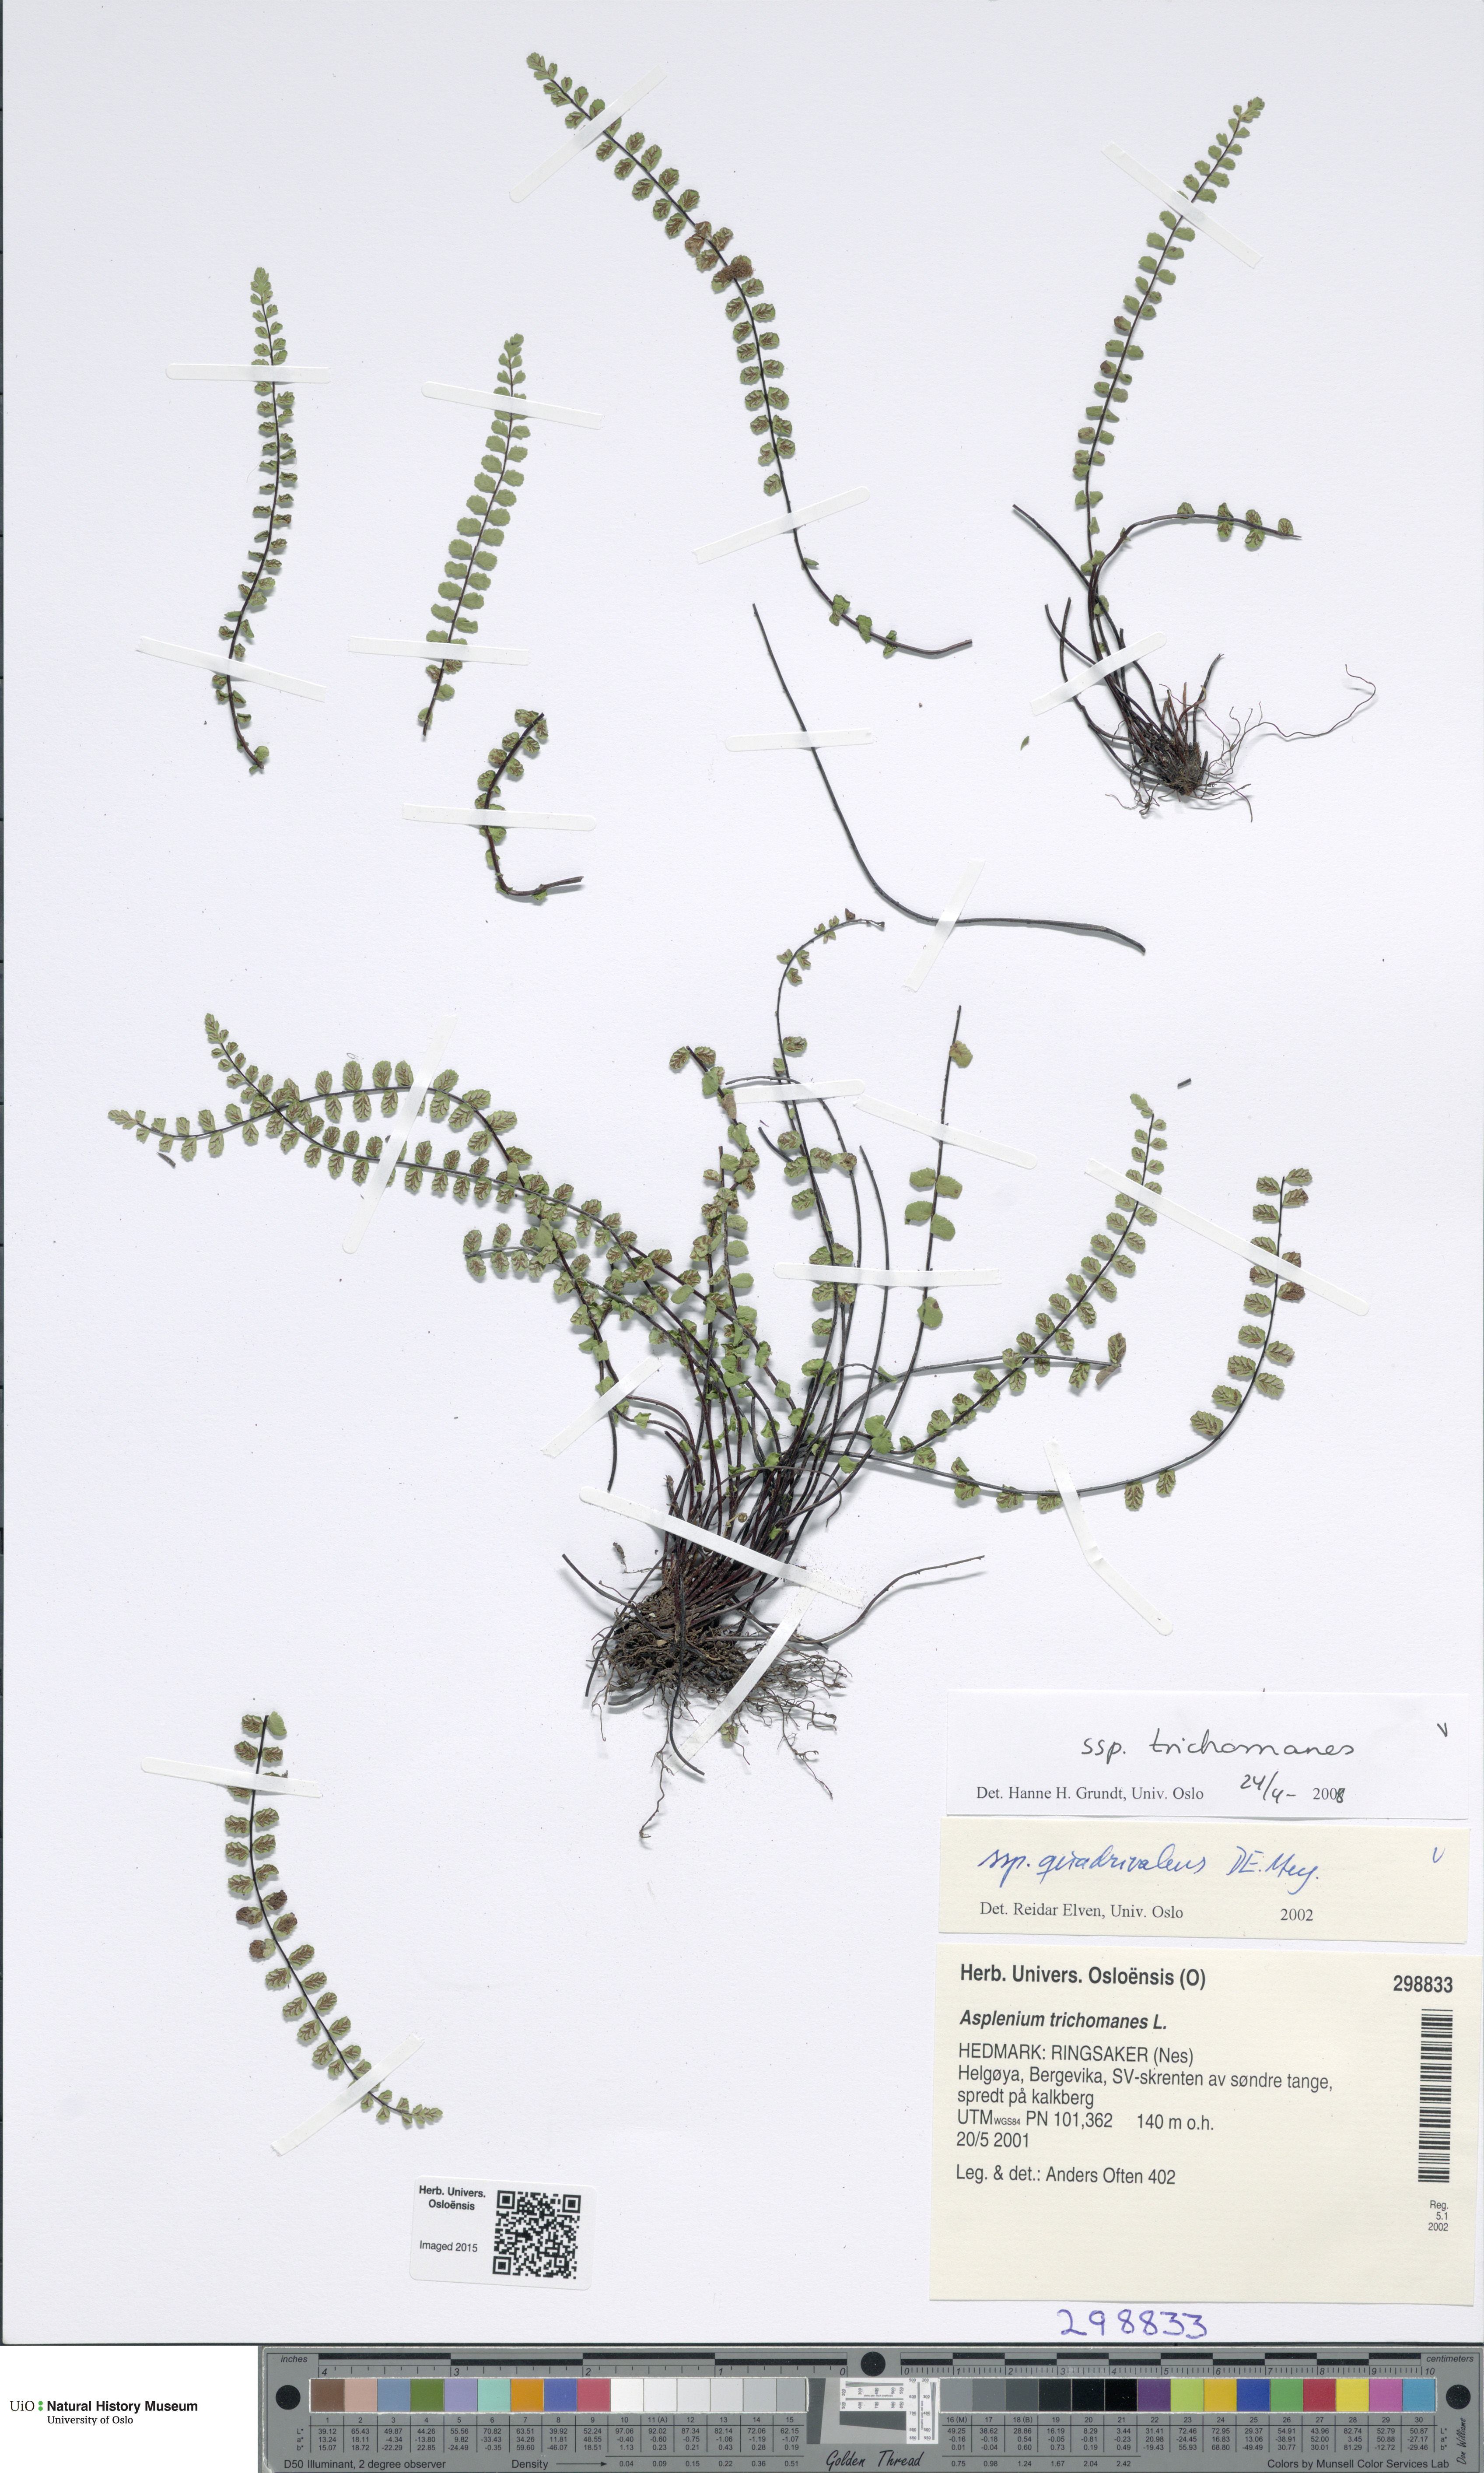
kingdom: Plantae
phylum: Tracheophyta
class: Polypodiopsida
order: Polypodiales
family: Aspleniaceae
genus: Asplenium
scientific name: Asplenium trichomanes
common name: Maidenhair spleenwort
